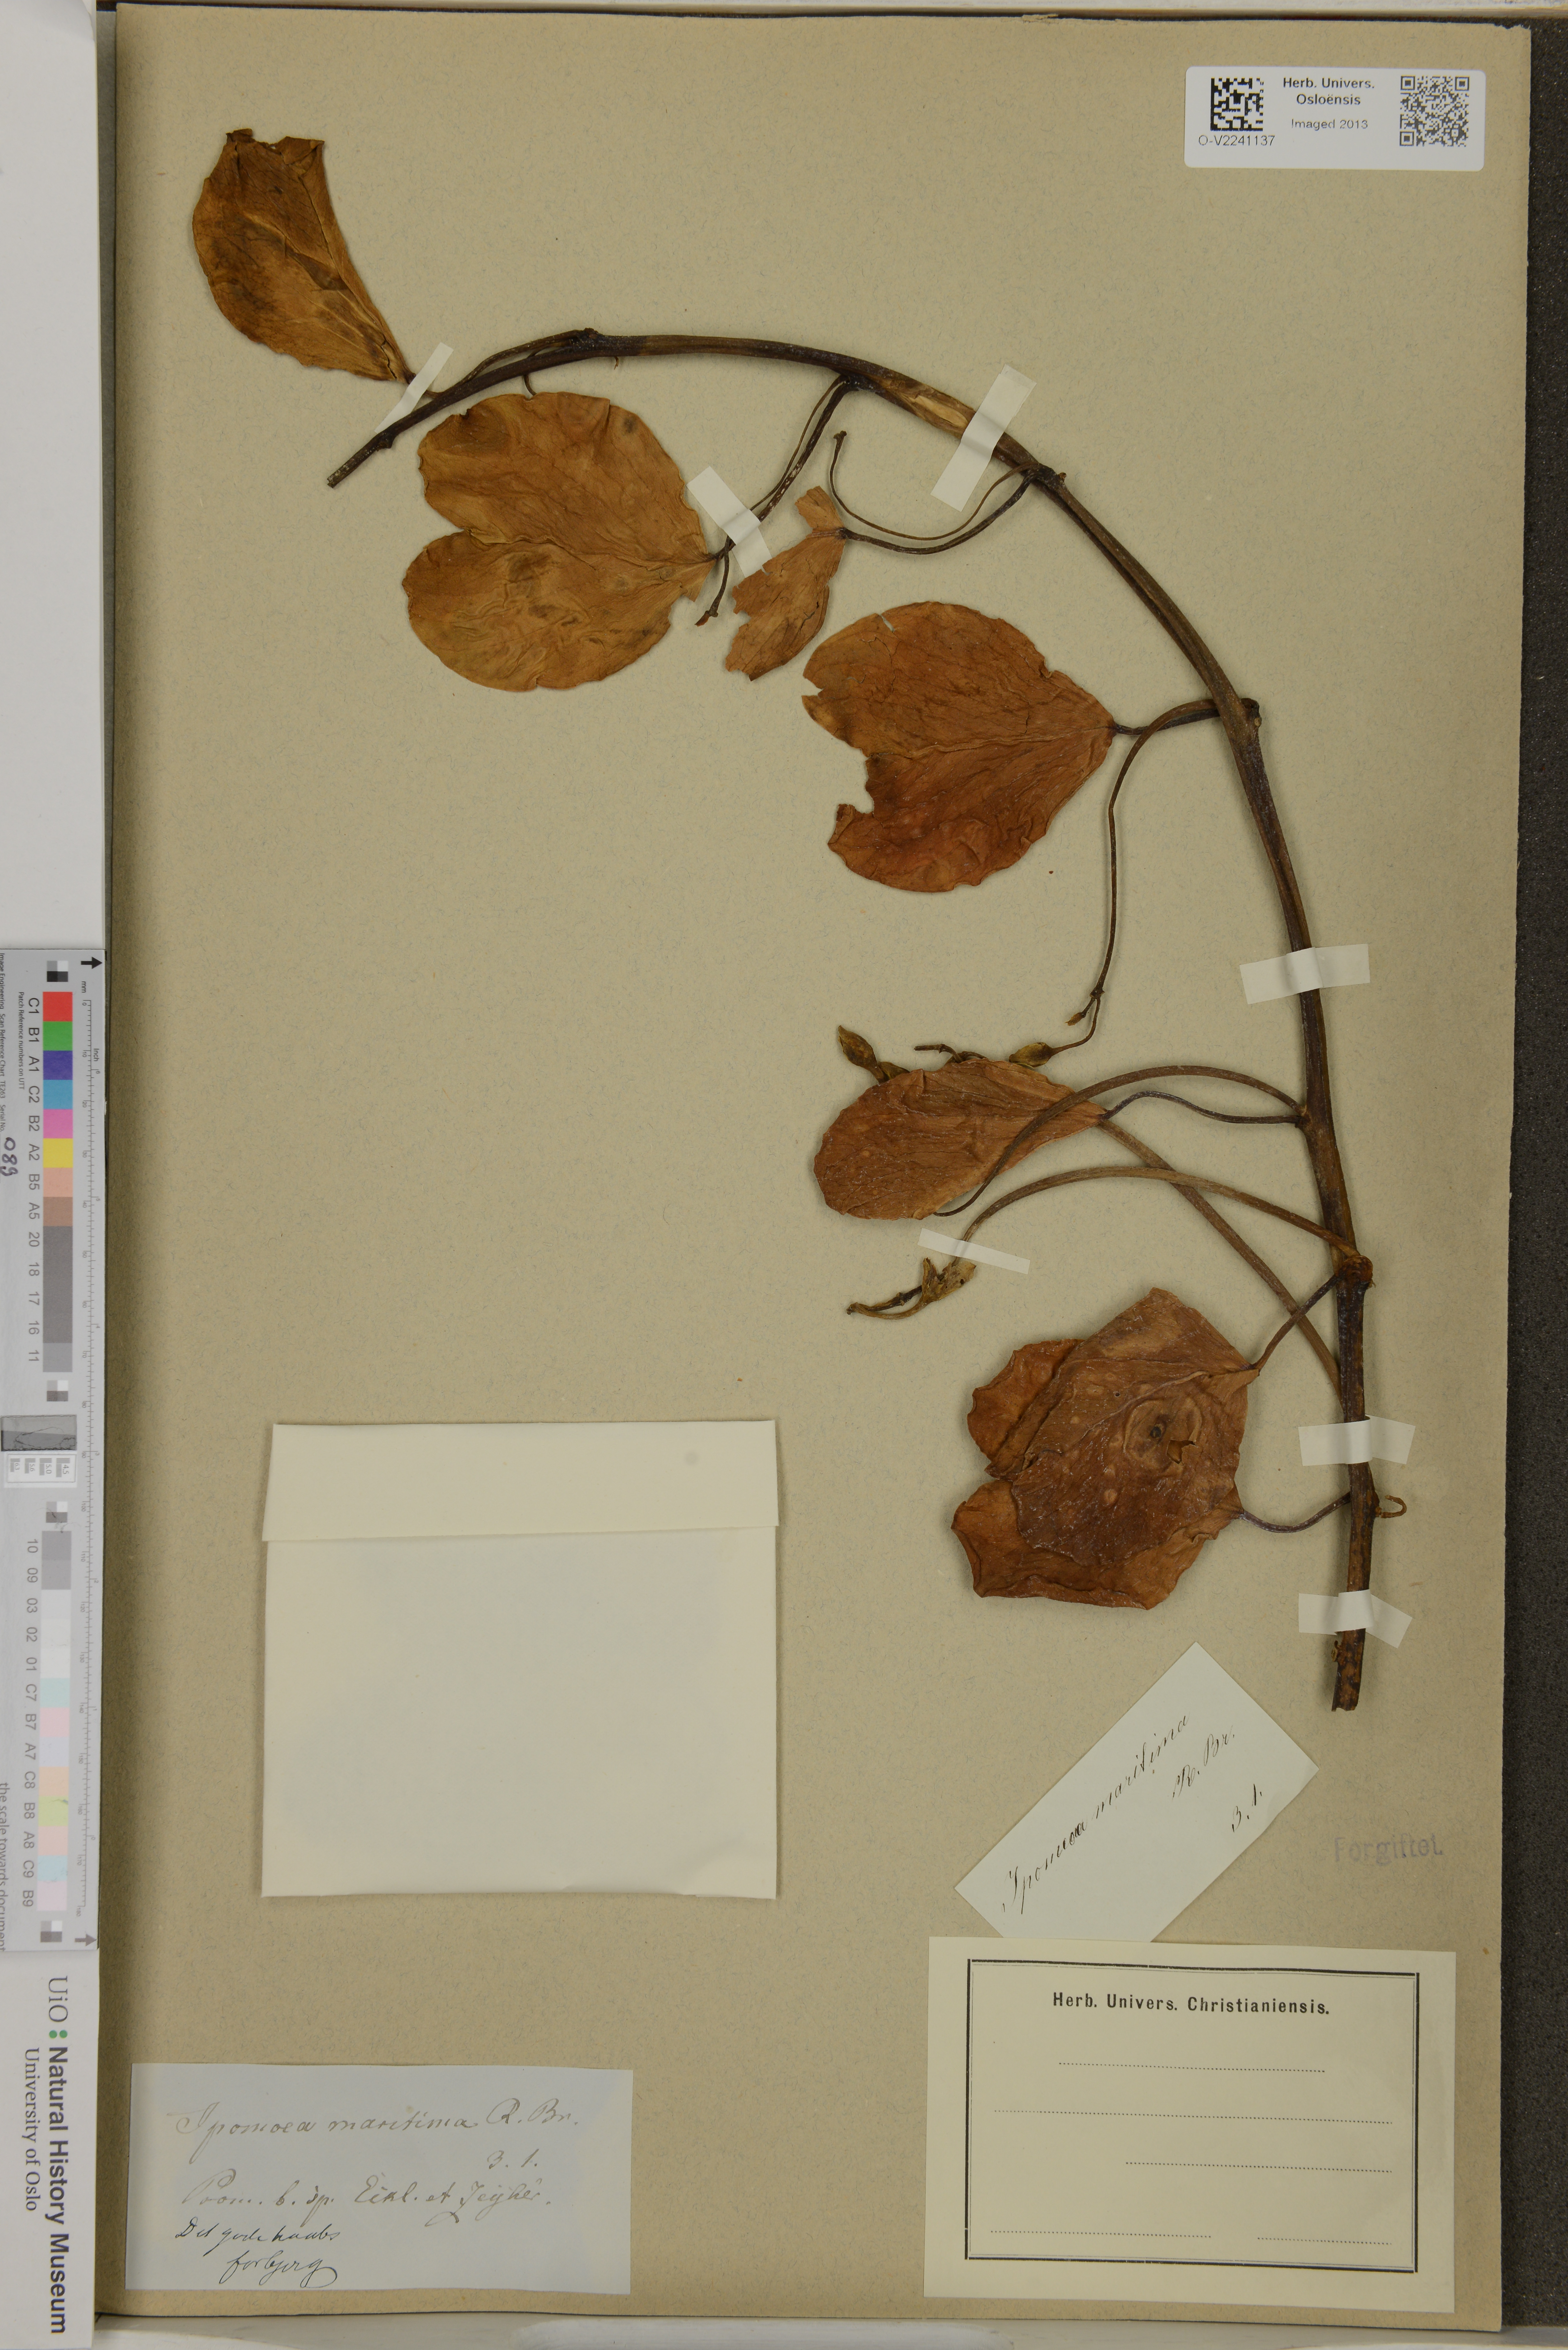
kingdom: Plantae
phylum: Tracheophyta
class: Magnoliopsida
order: Solanales
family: Convolvulaceae
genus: Ipomoea
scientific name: Ipomoea pes-caprae
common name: Beach morning glory
